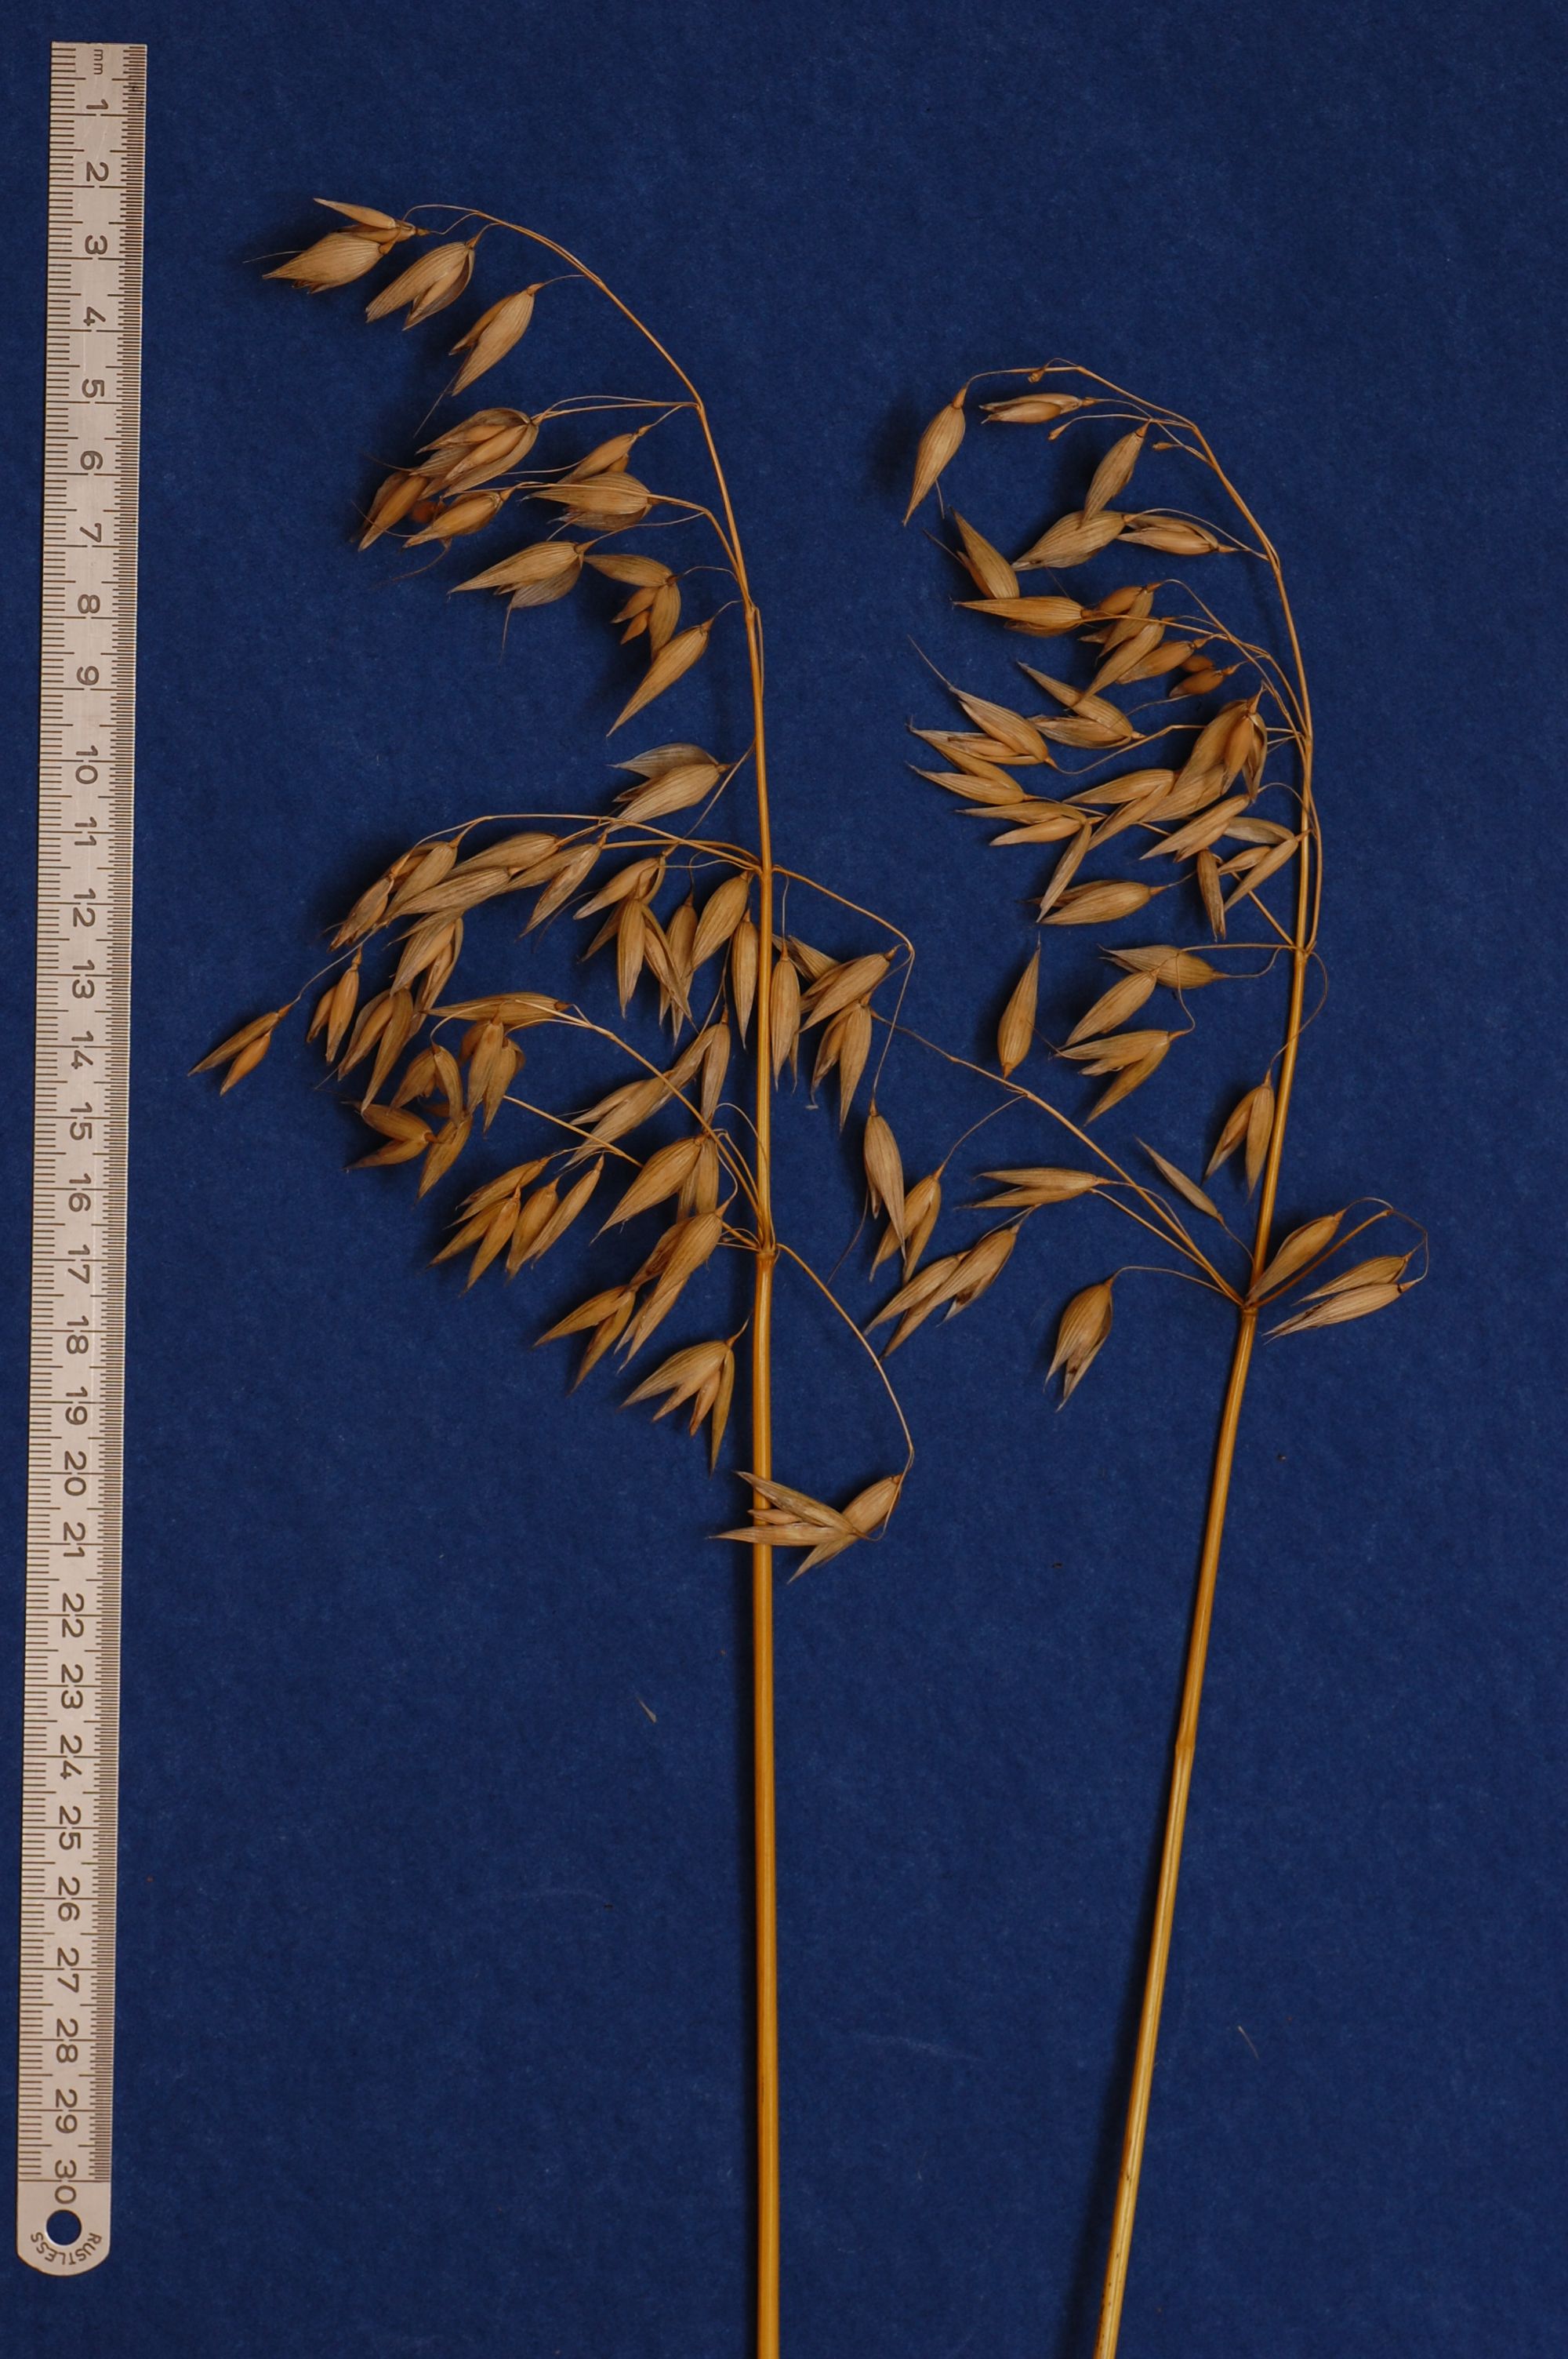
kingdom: Plantae
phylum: Tracheophyta
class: Liliopsida
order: Poales
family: Poaceae
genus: Avena
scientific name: Avena sativa
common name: Oat
